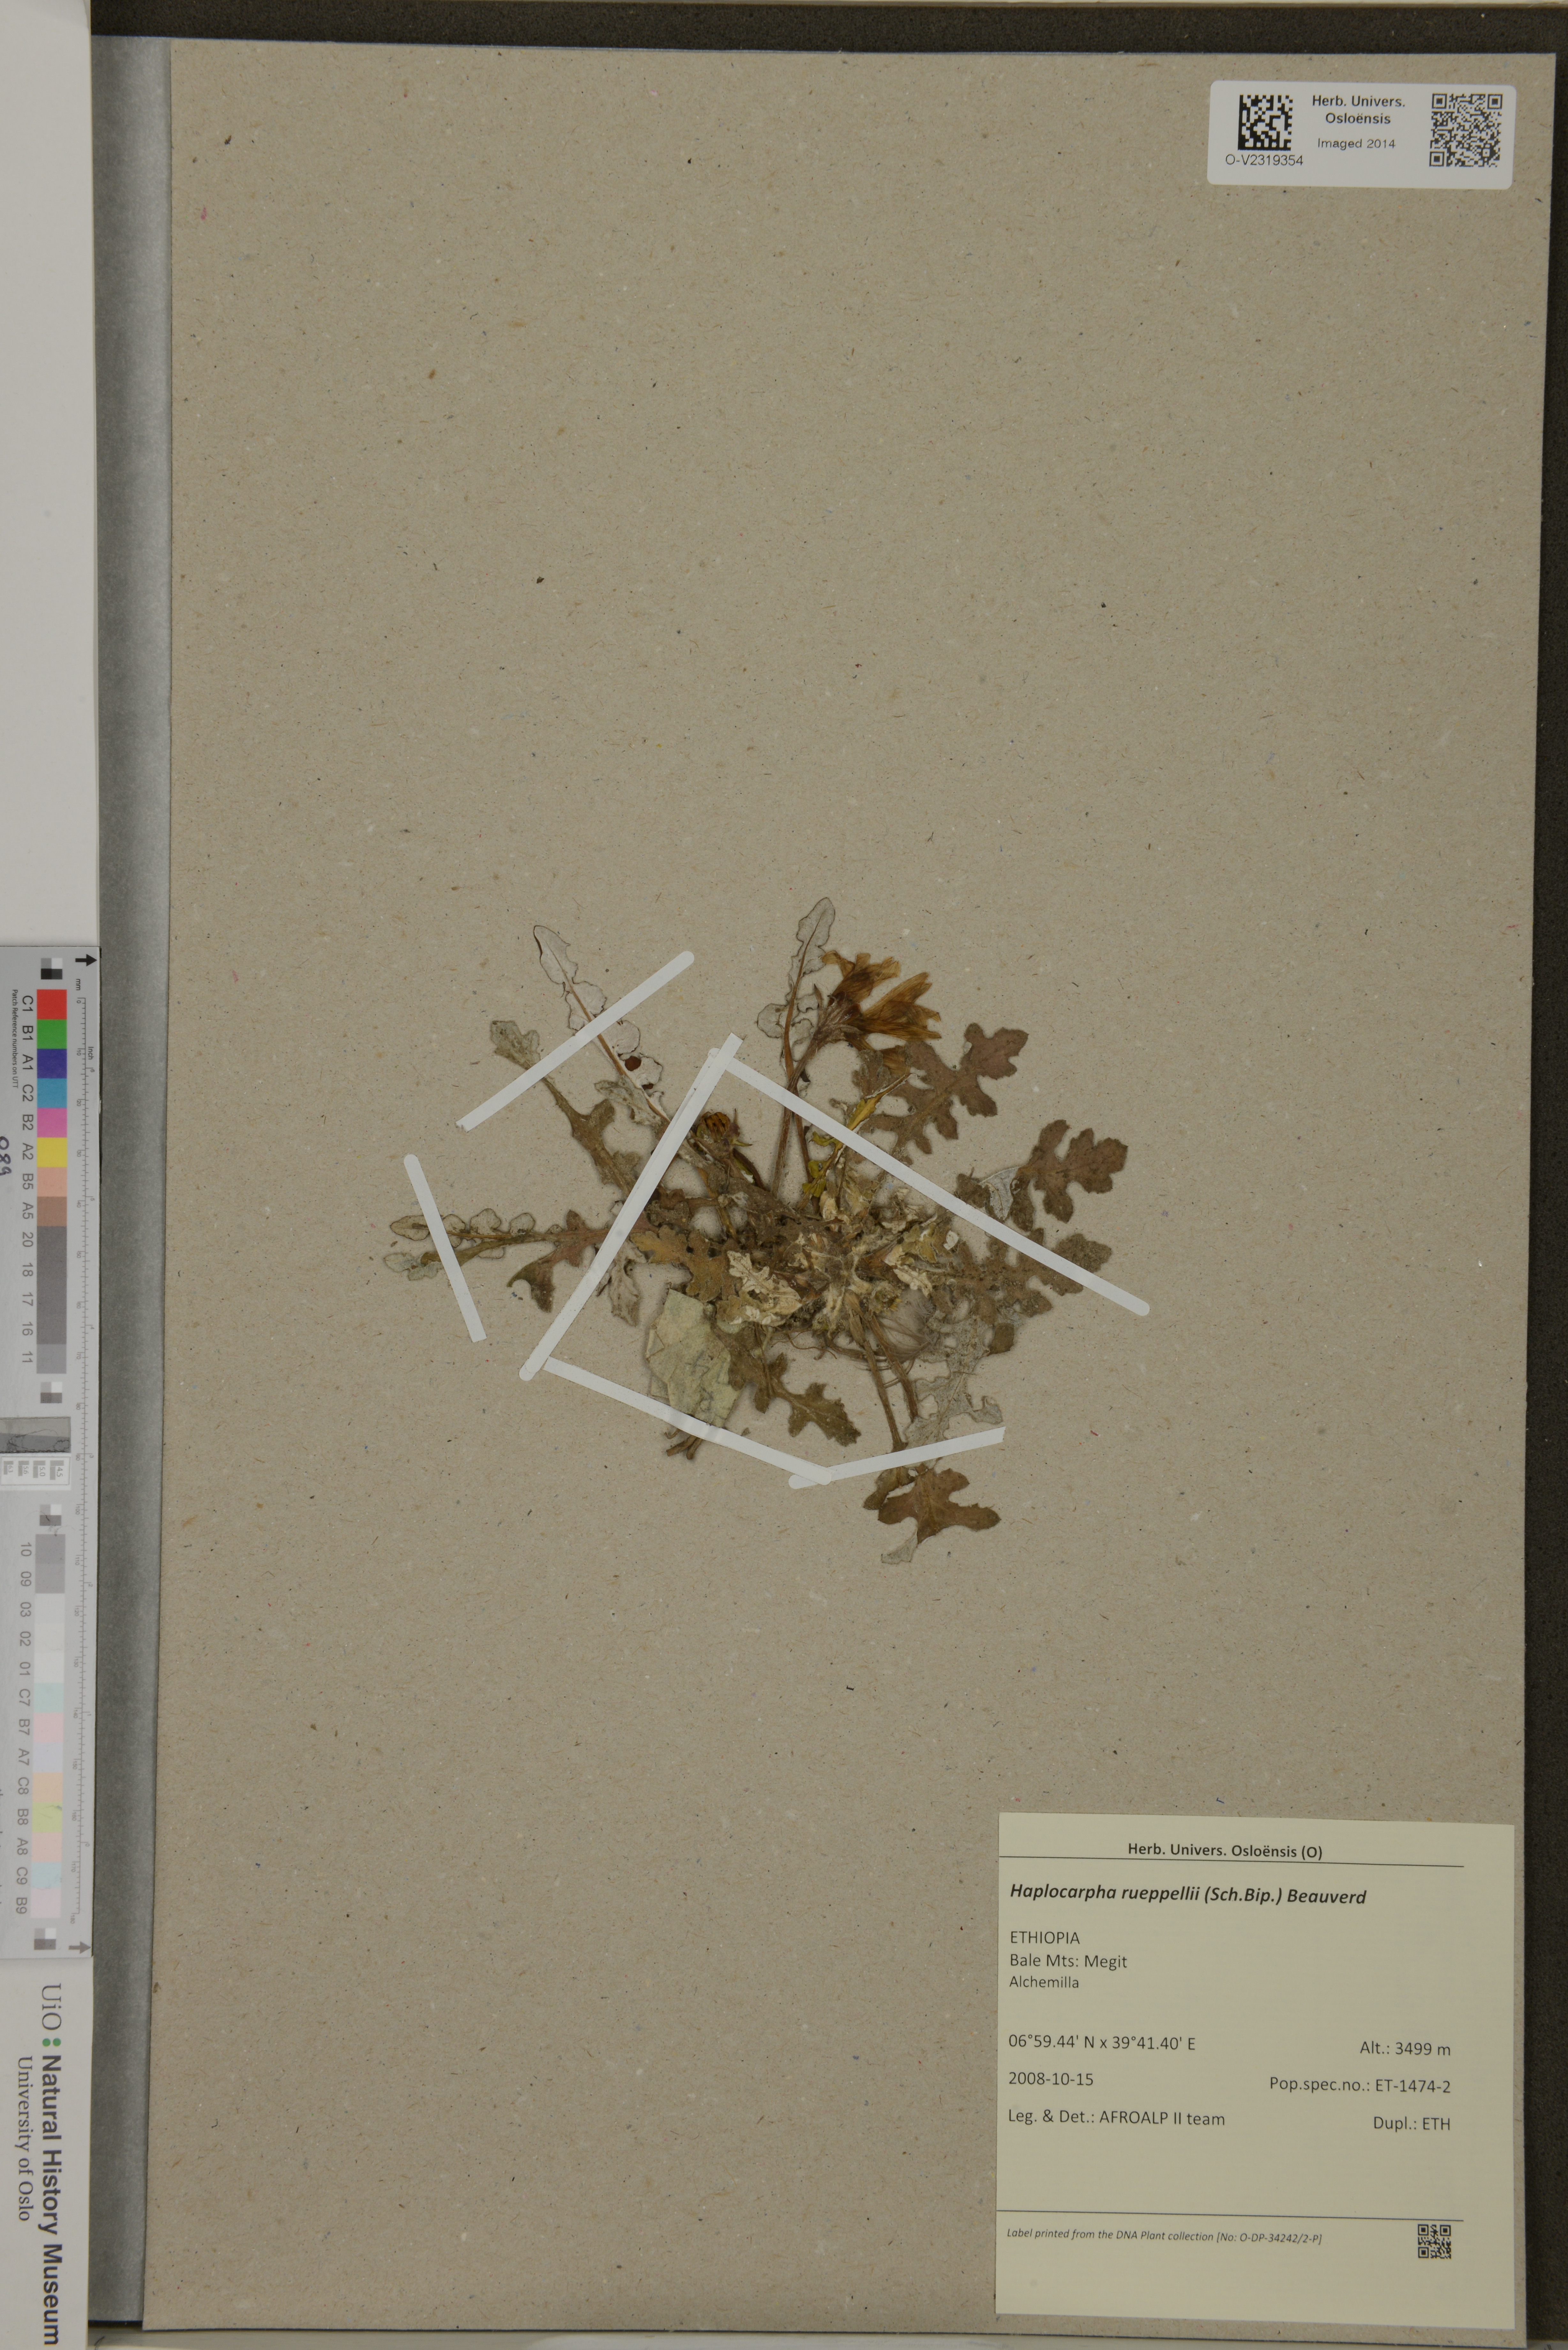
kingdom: Plantae
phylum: Tracheophyta
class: Magnoliopsida
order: Asterales
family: Asteraceae
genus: Haplocarpha
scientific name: Haplocarpha rueppelii
